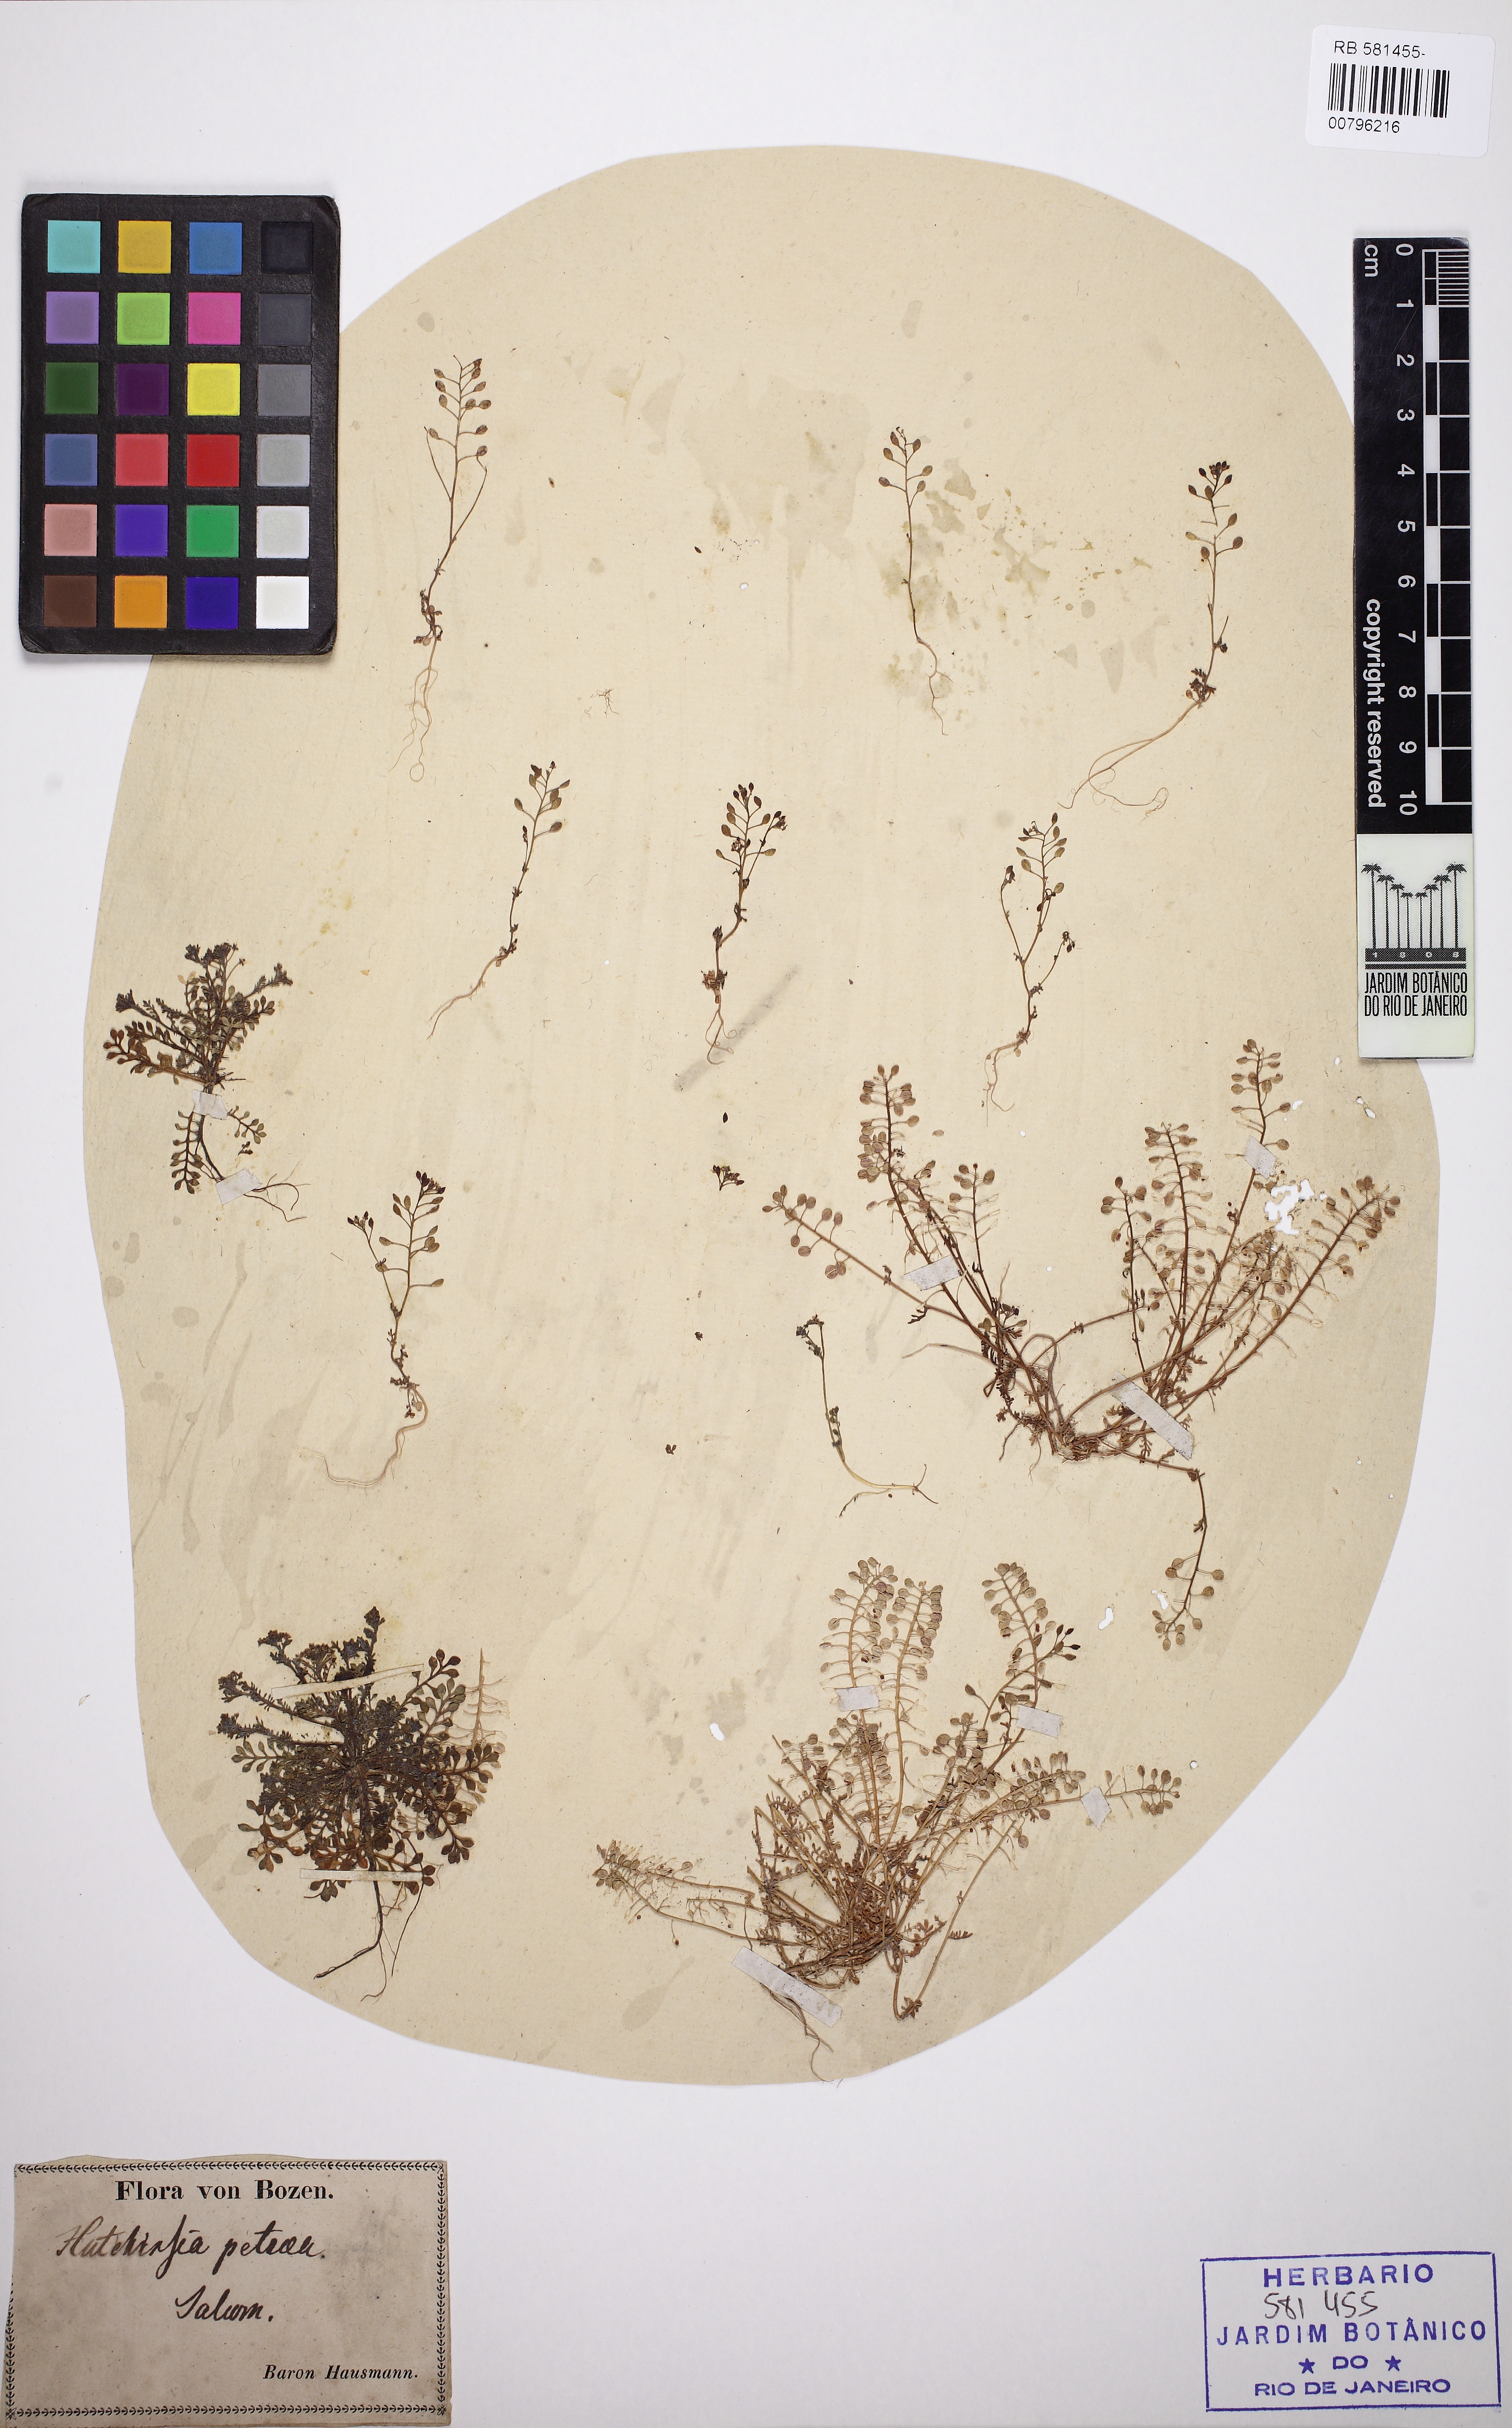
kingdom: Plantae
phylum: Tracheophyta
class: Magnoliopsida
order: Brassicales
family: Brassicaceae
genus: Hornungia
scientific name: Hornungia petraea
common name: Hutchinsia
